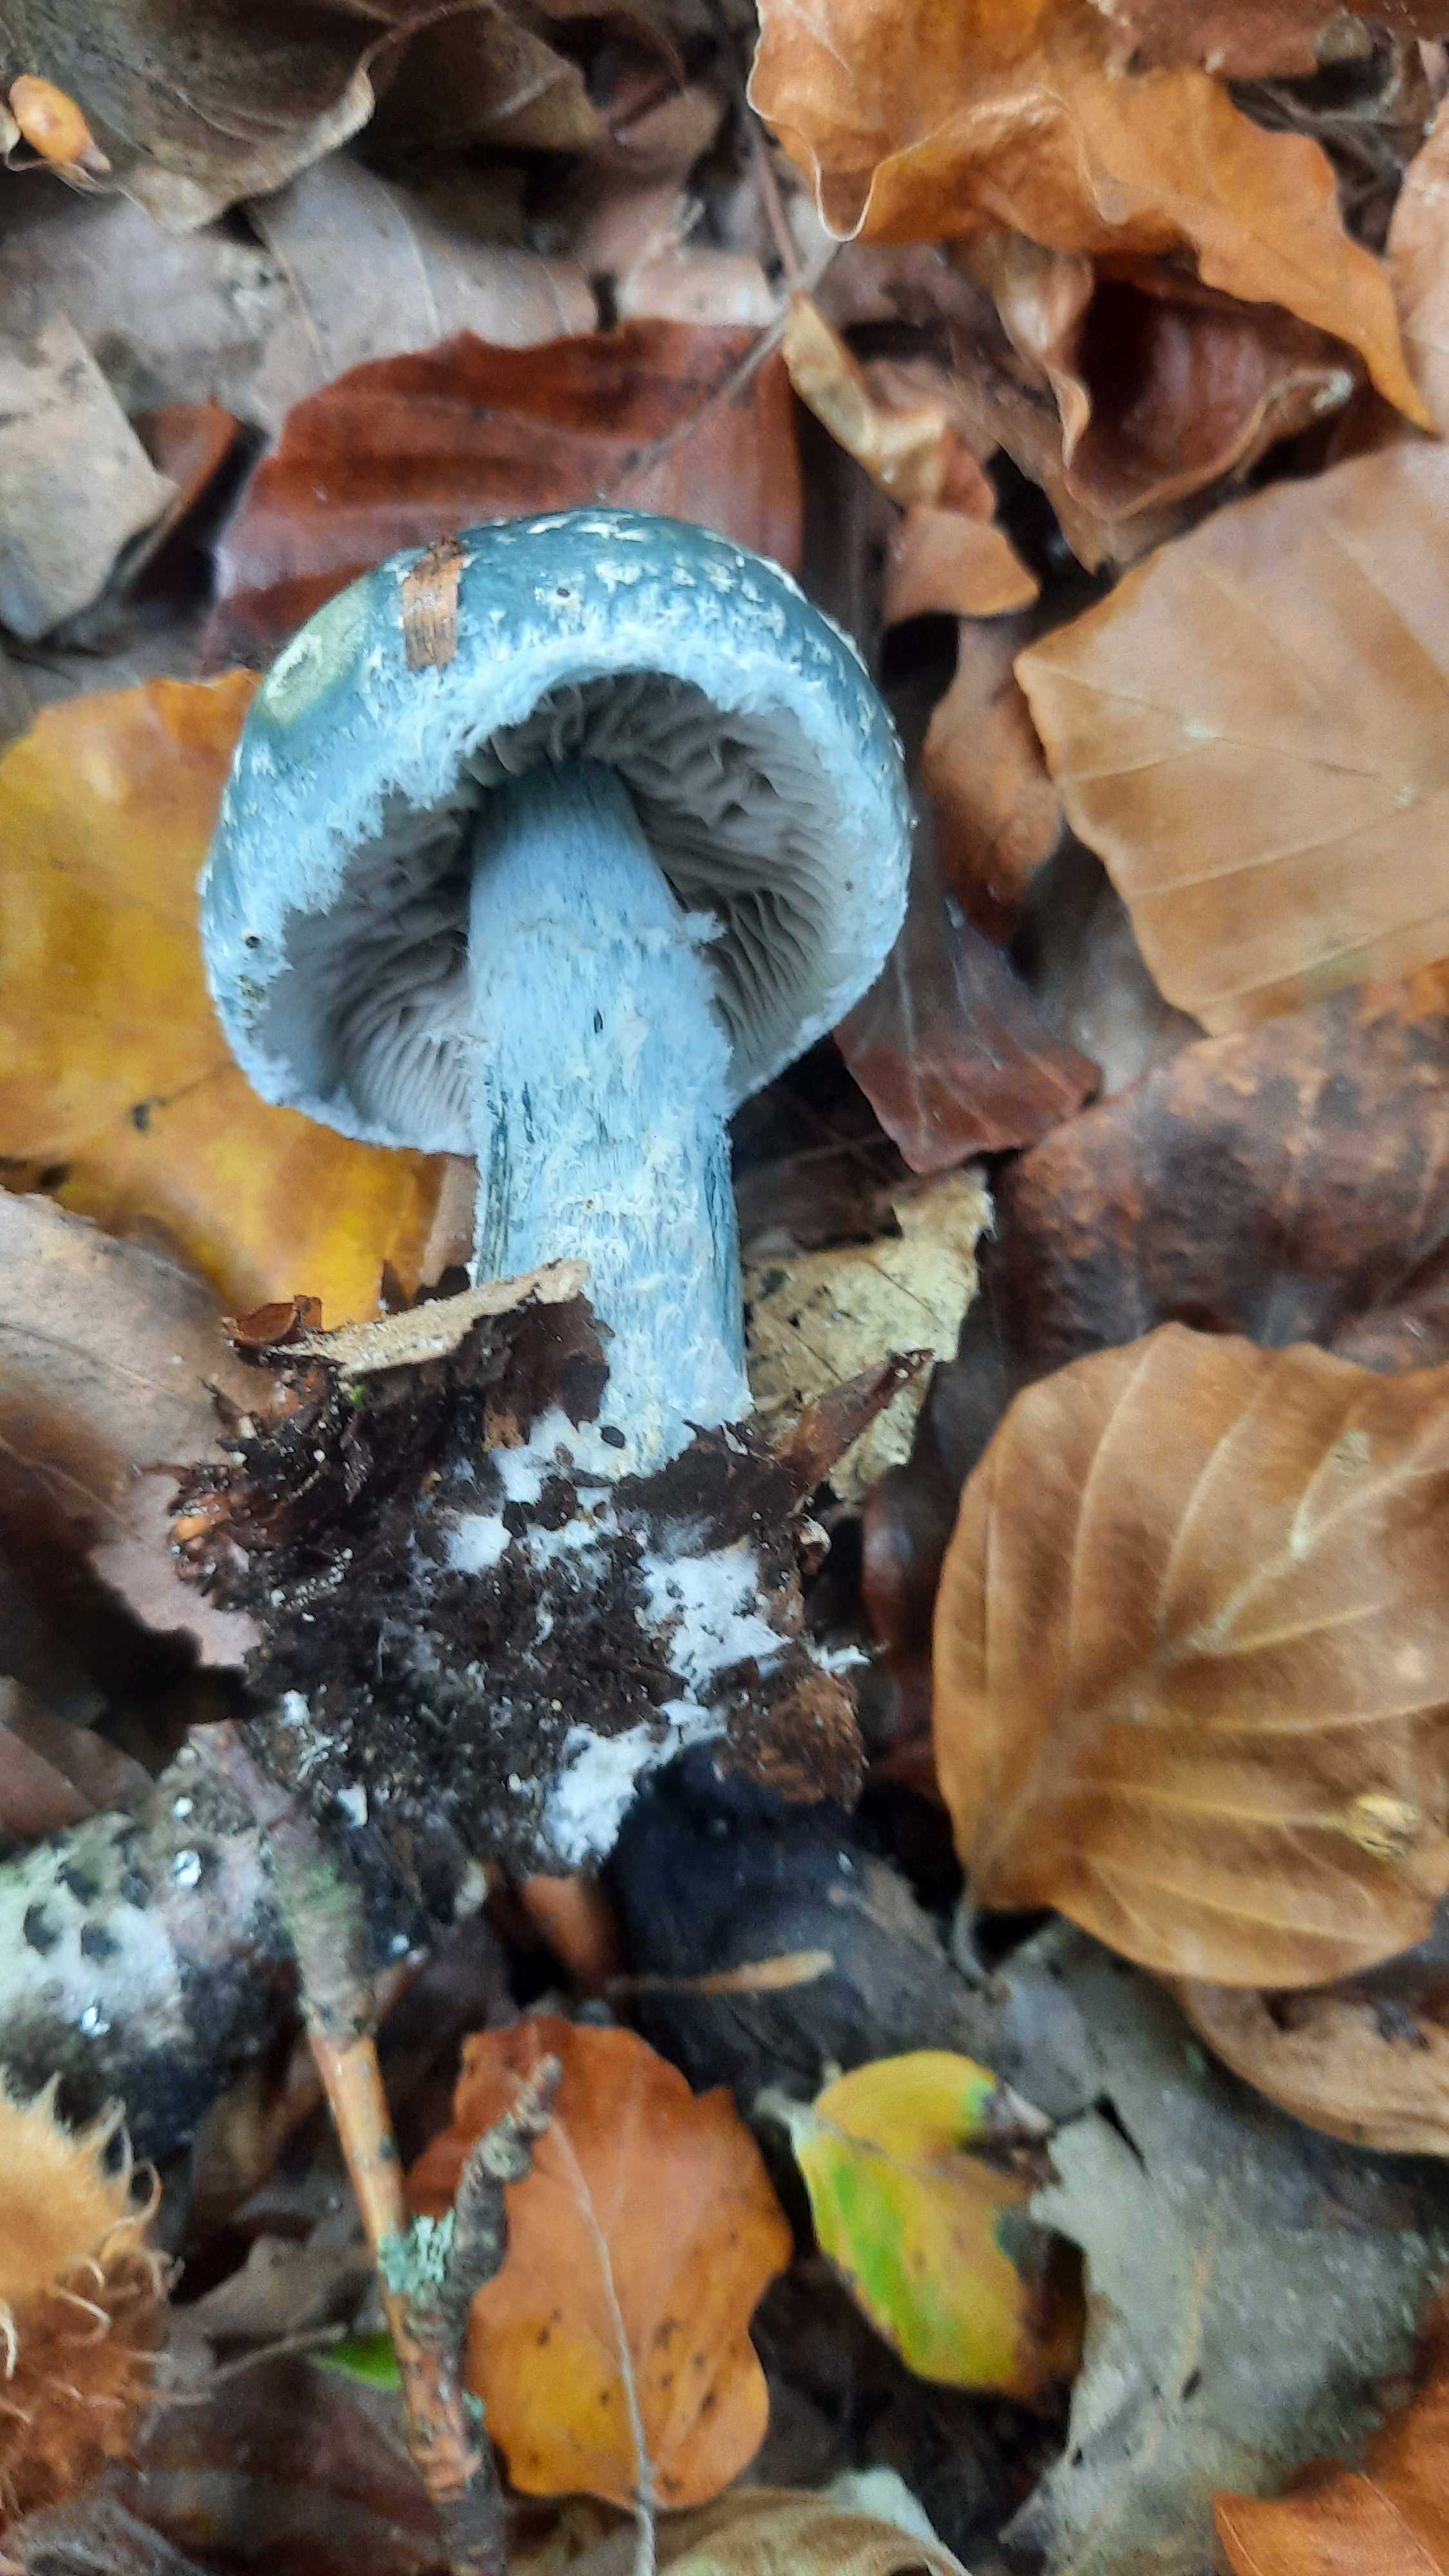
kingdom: Fungi
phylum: Basidiomycota
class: Agaricomycetes
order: Agaricales
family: Strophariaceae
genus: Stropharia
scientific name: Stropharia aeruginosa
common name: spanskgrøn bredblad
